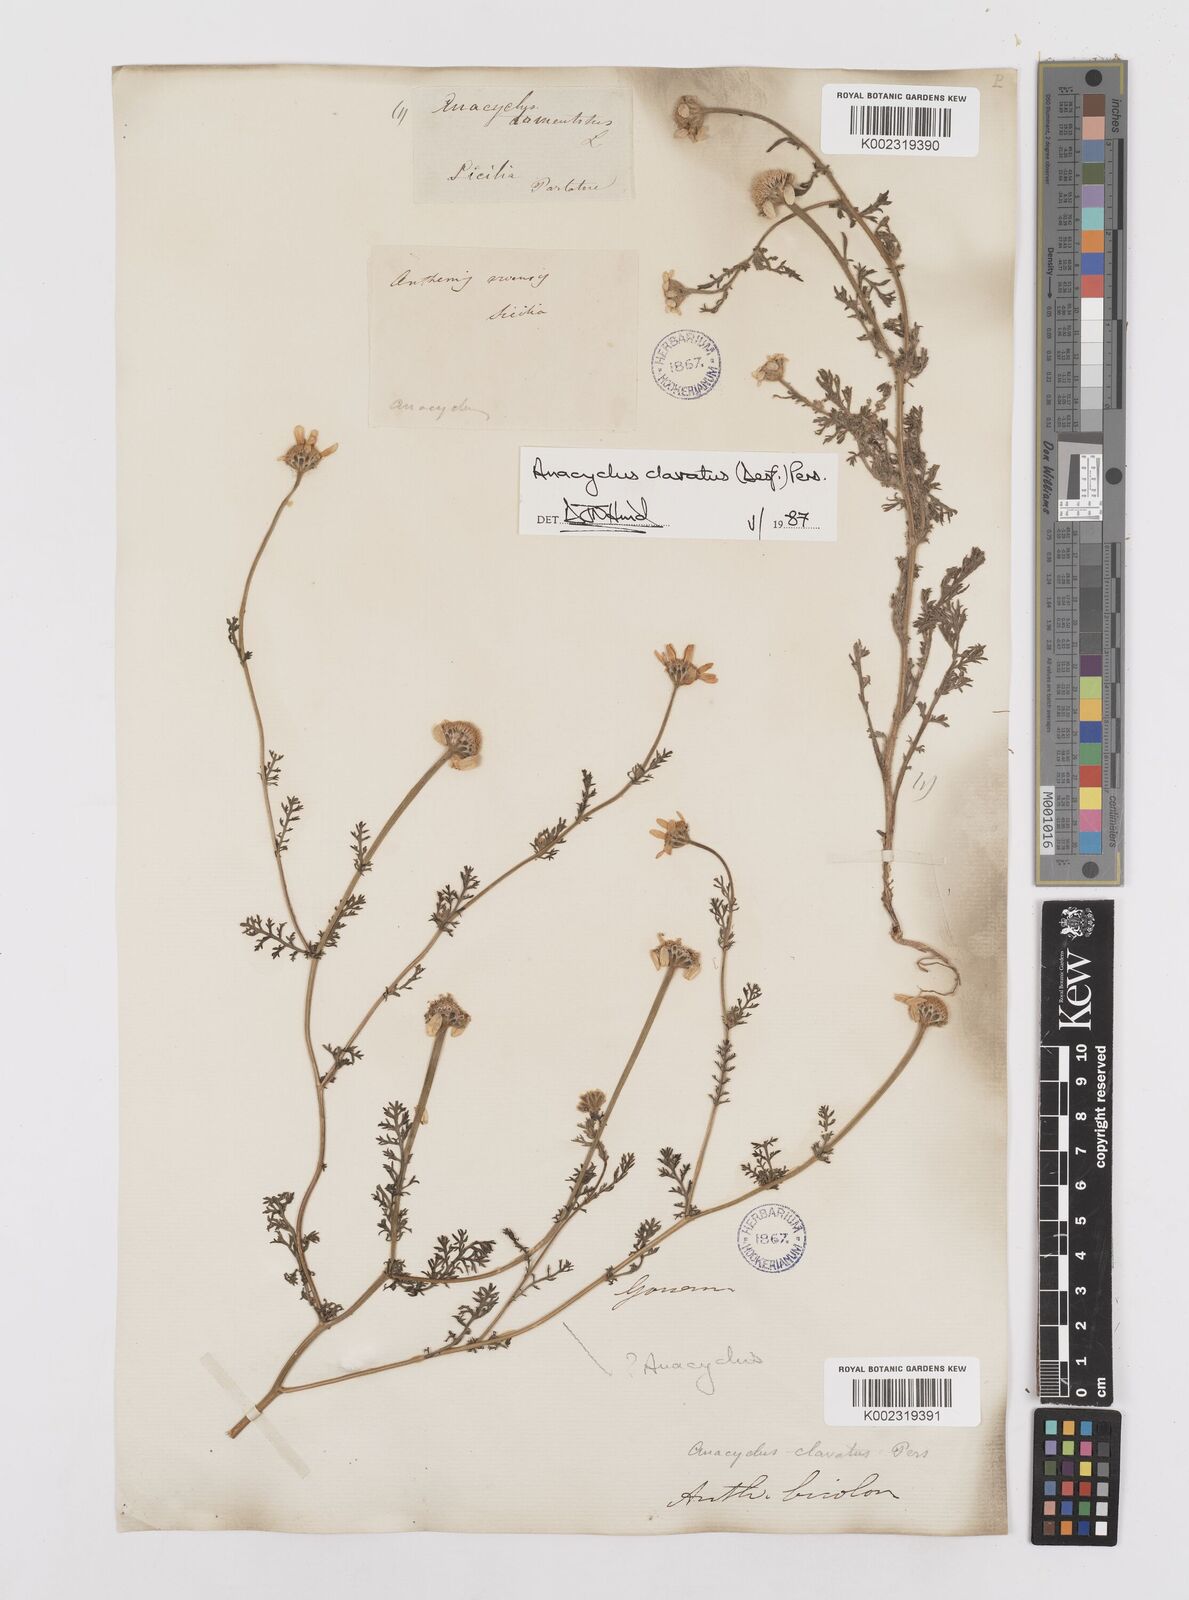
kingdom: Plantae
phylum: Tracheophyta
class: Magnoliopsida
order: Asterales
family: Asteraceae
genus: Anacyclus
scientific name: Anacyclus clavatus
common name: Whitebuttons
